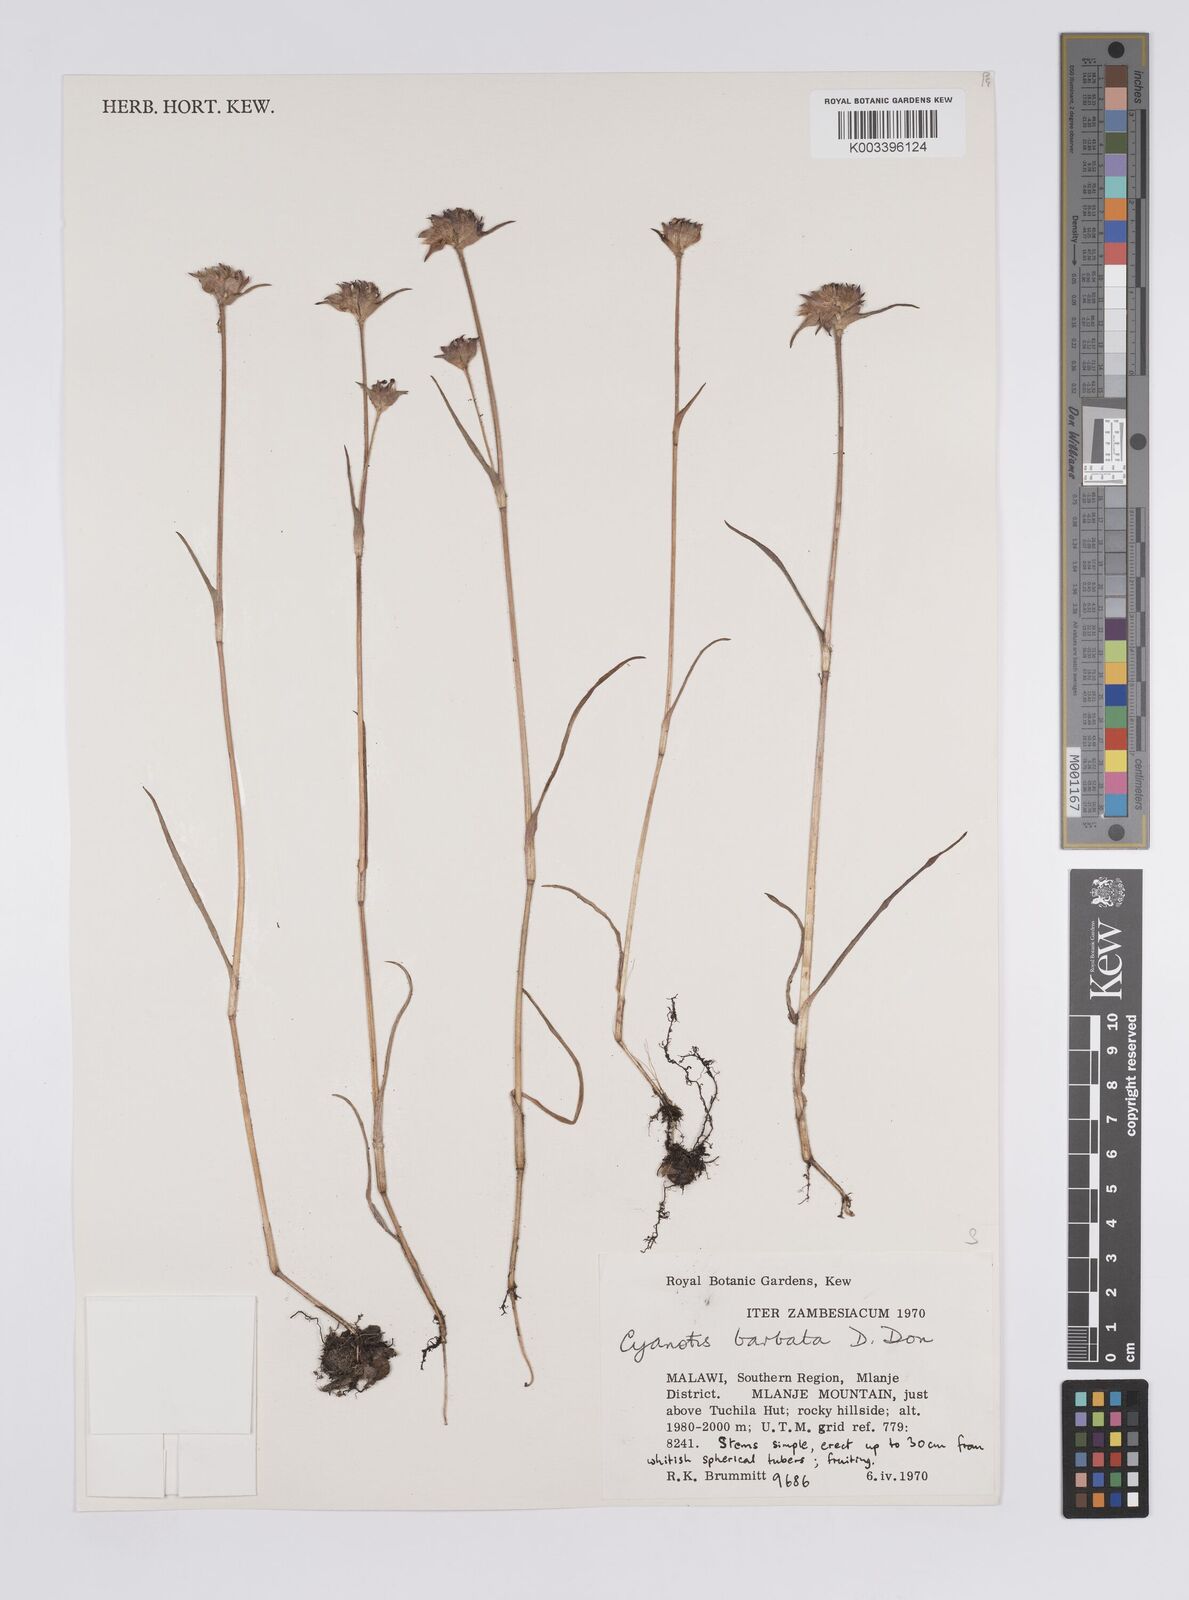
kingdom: Plantae
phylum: Tracheophyta
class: Liliopsida
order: Commelinales
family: Commelinaceae
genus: Cyanotis
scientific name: Cyanotis vaga
